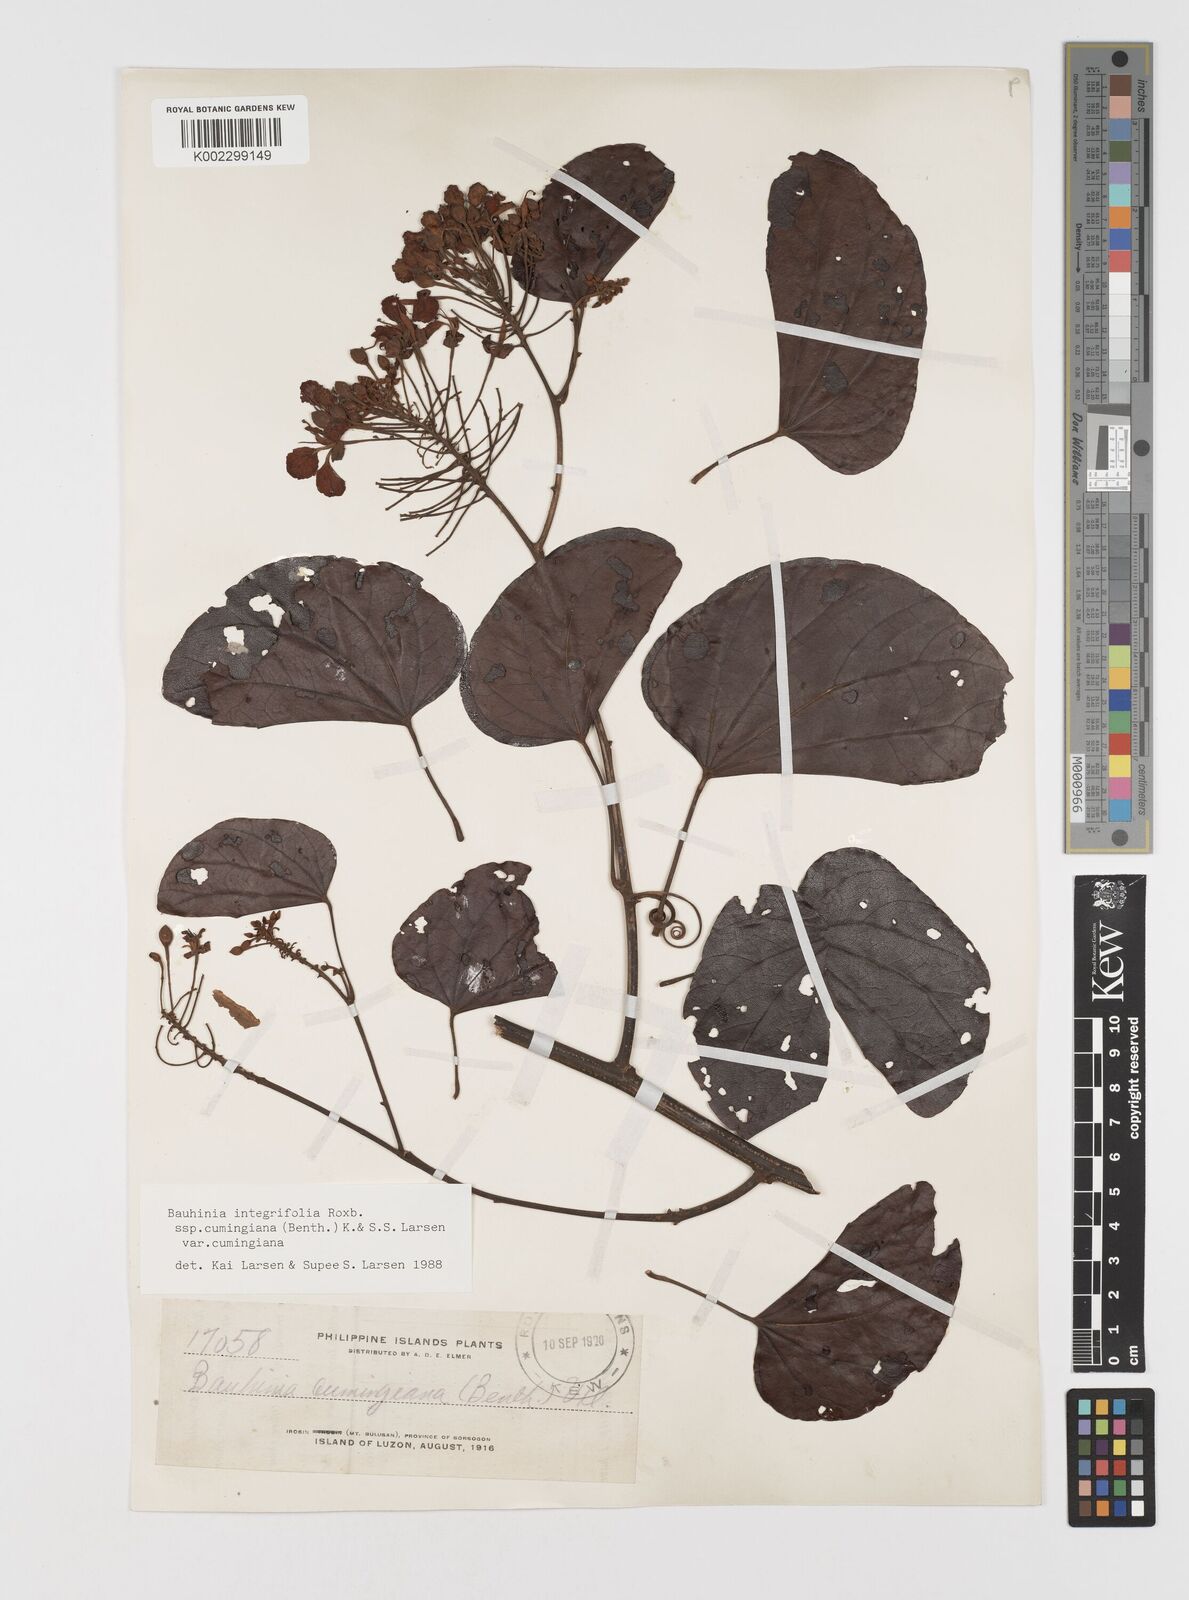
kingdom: Plantae
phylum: Tracheophyta
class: Magnoliopsida
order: Fabales
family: Fabaceae
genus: Phanera
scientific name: Phanera integrifolia
